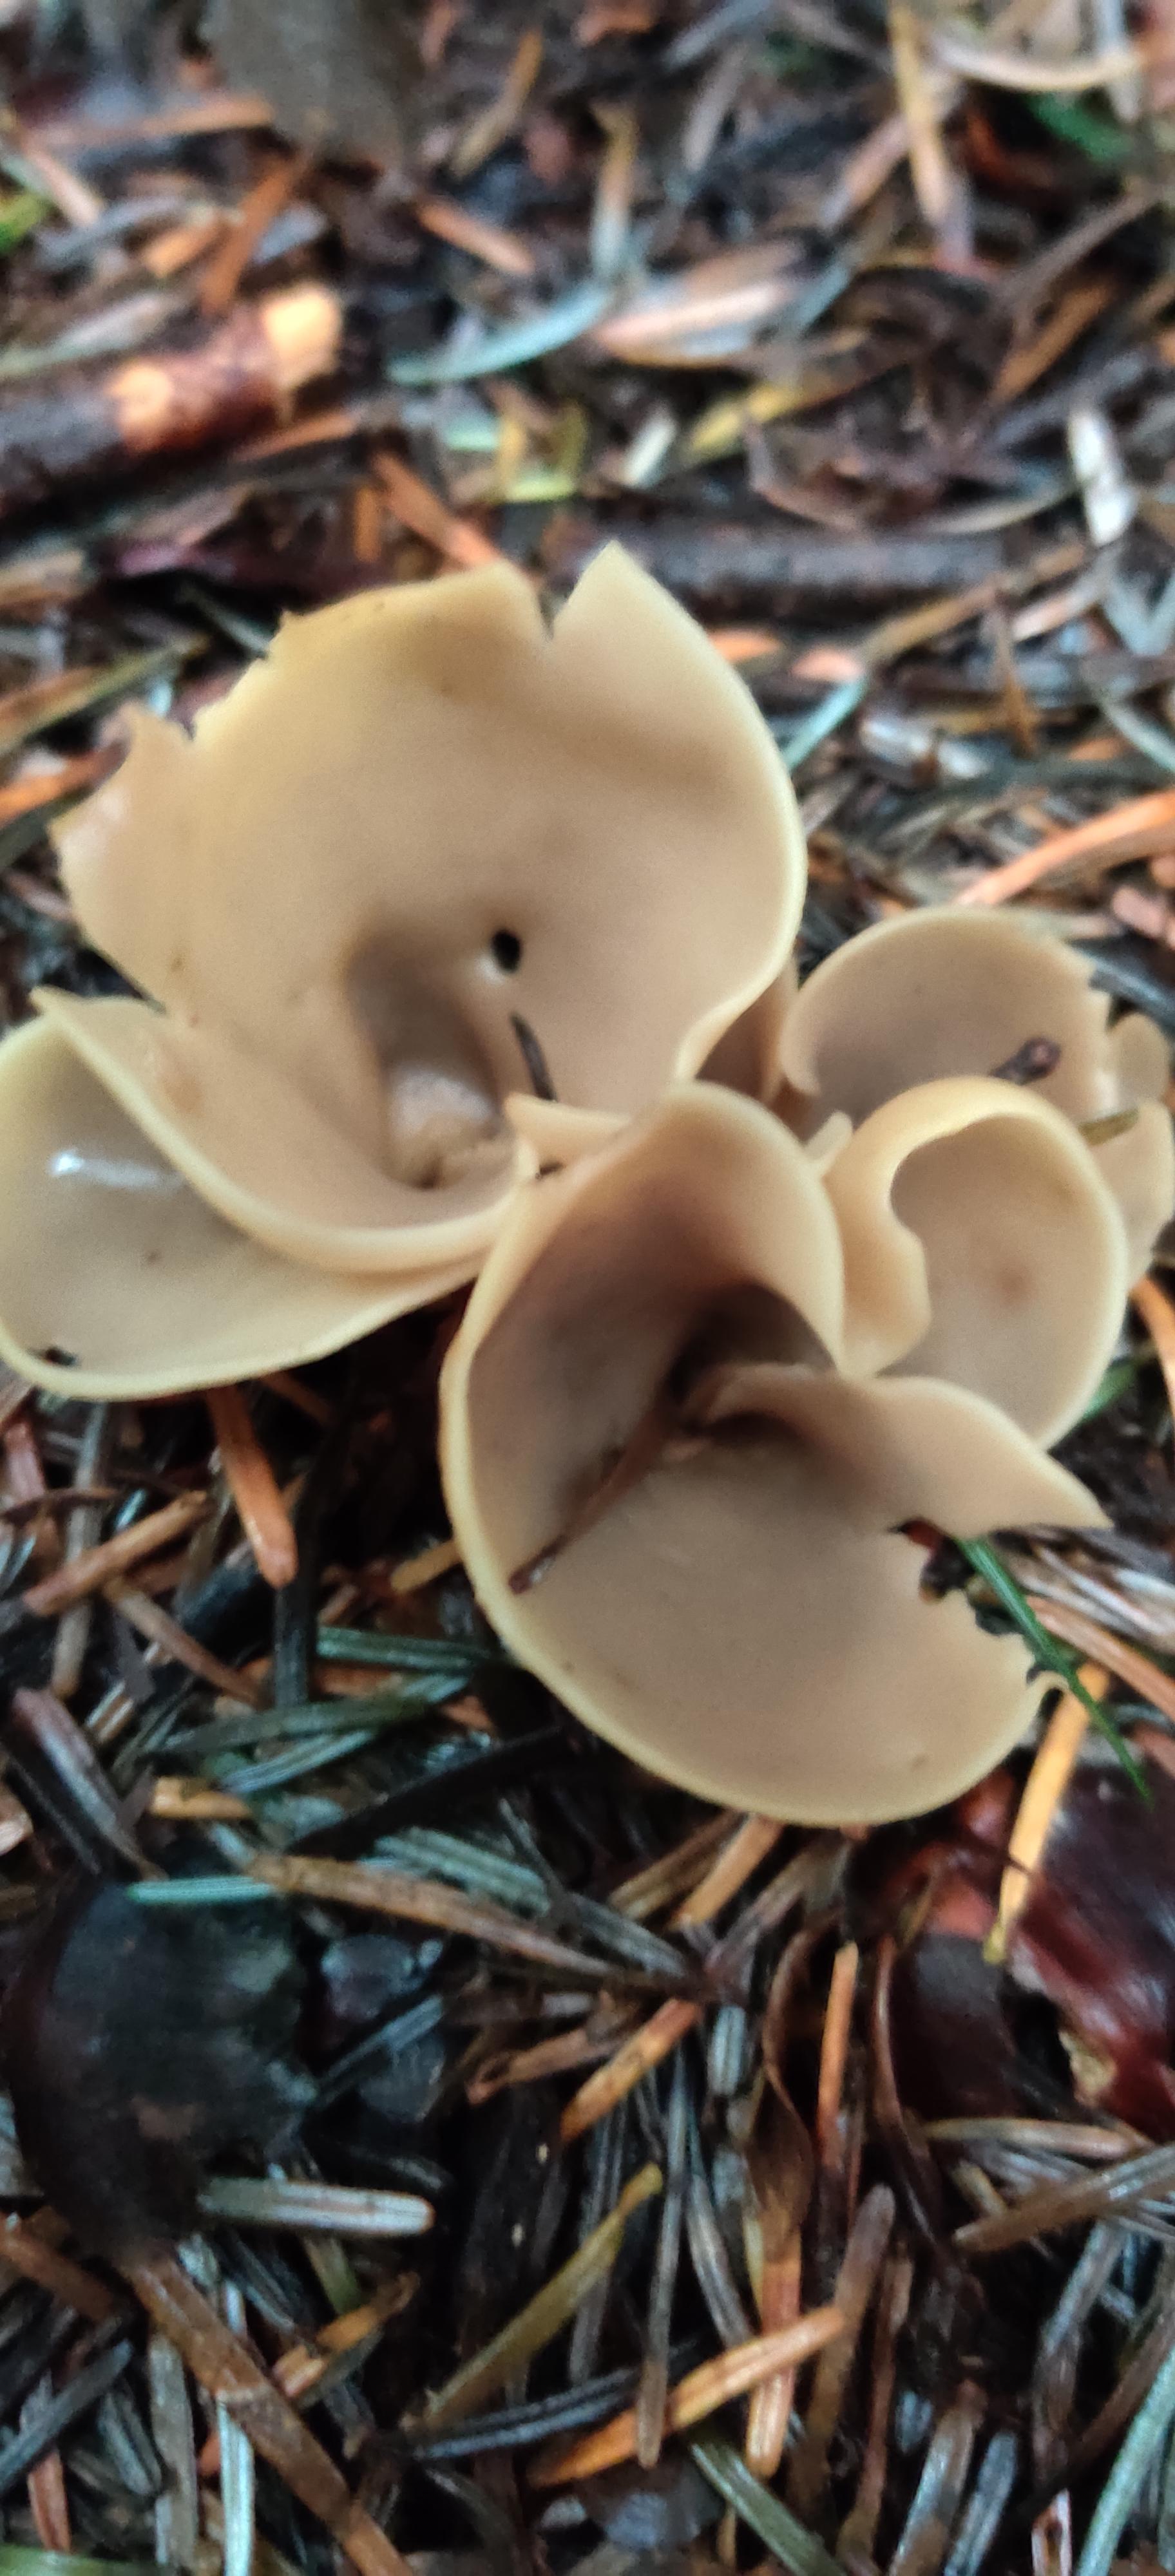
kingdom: Fungi
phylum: Ascomycota
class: Pezizomycetes
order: Pezizales
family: Otideaceae
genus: Otidea
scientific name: Otidea
